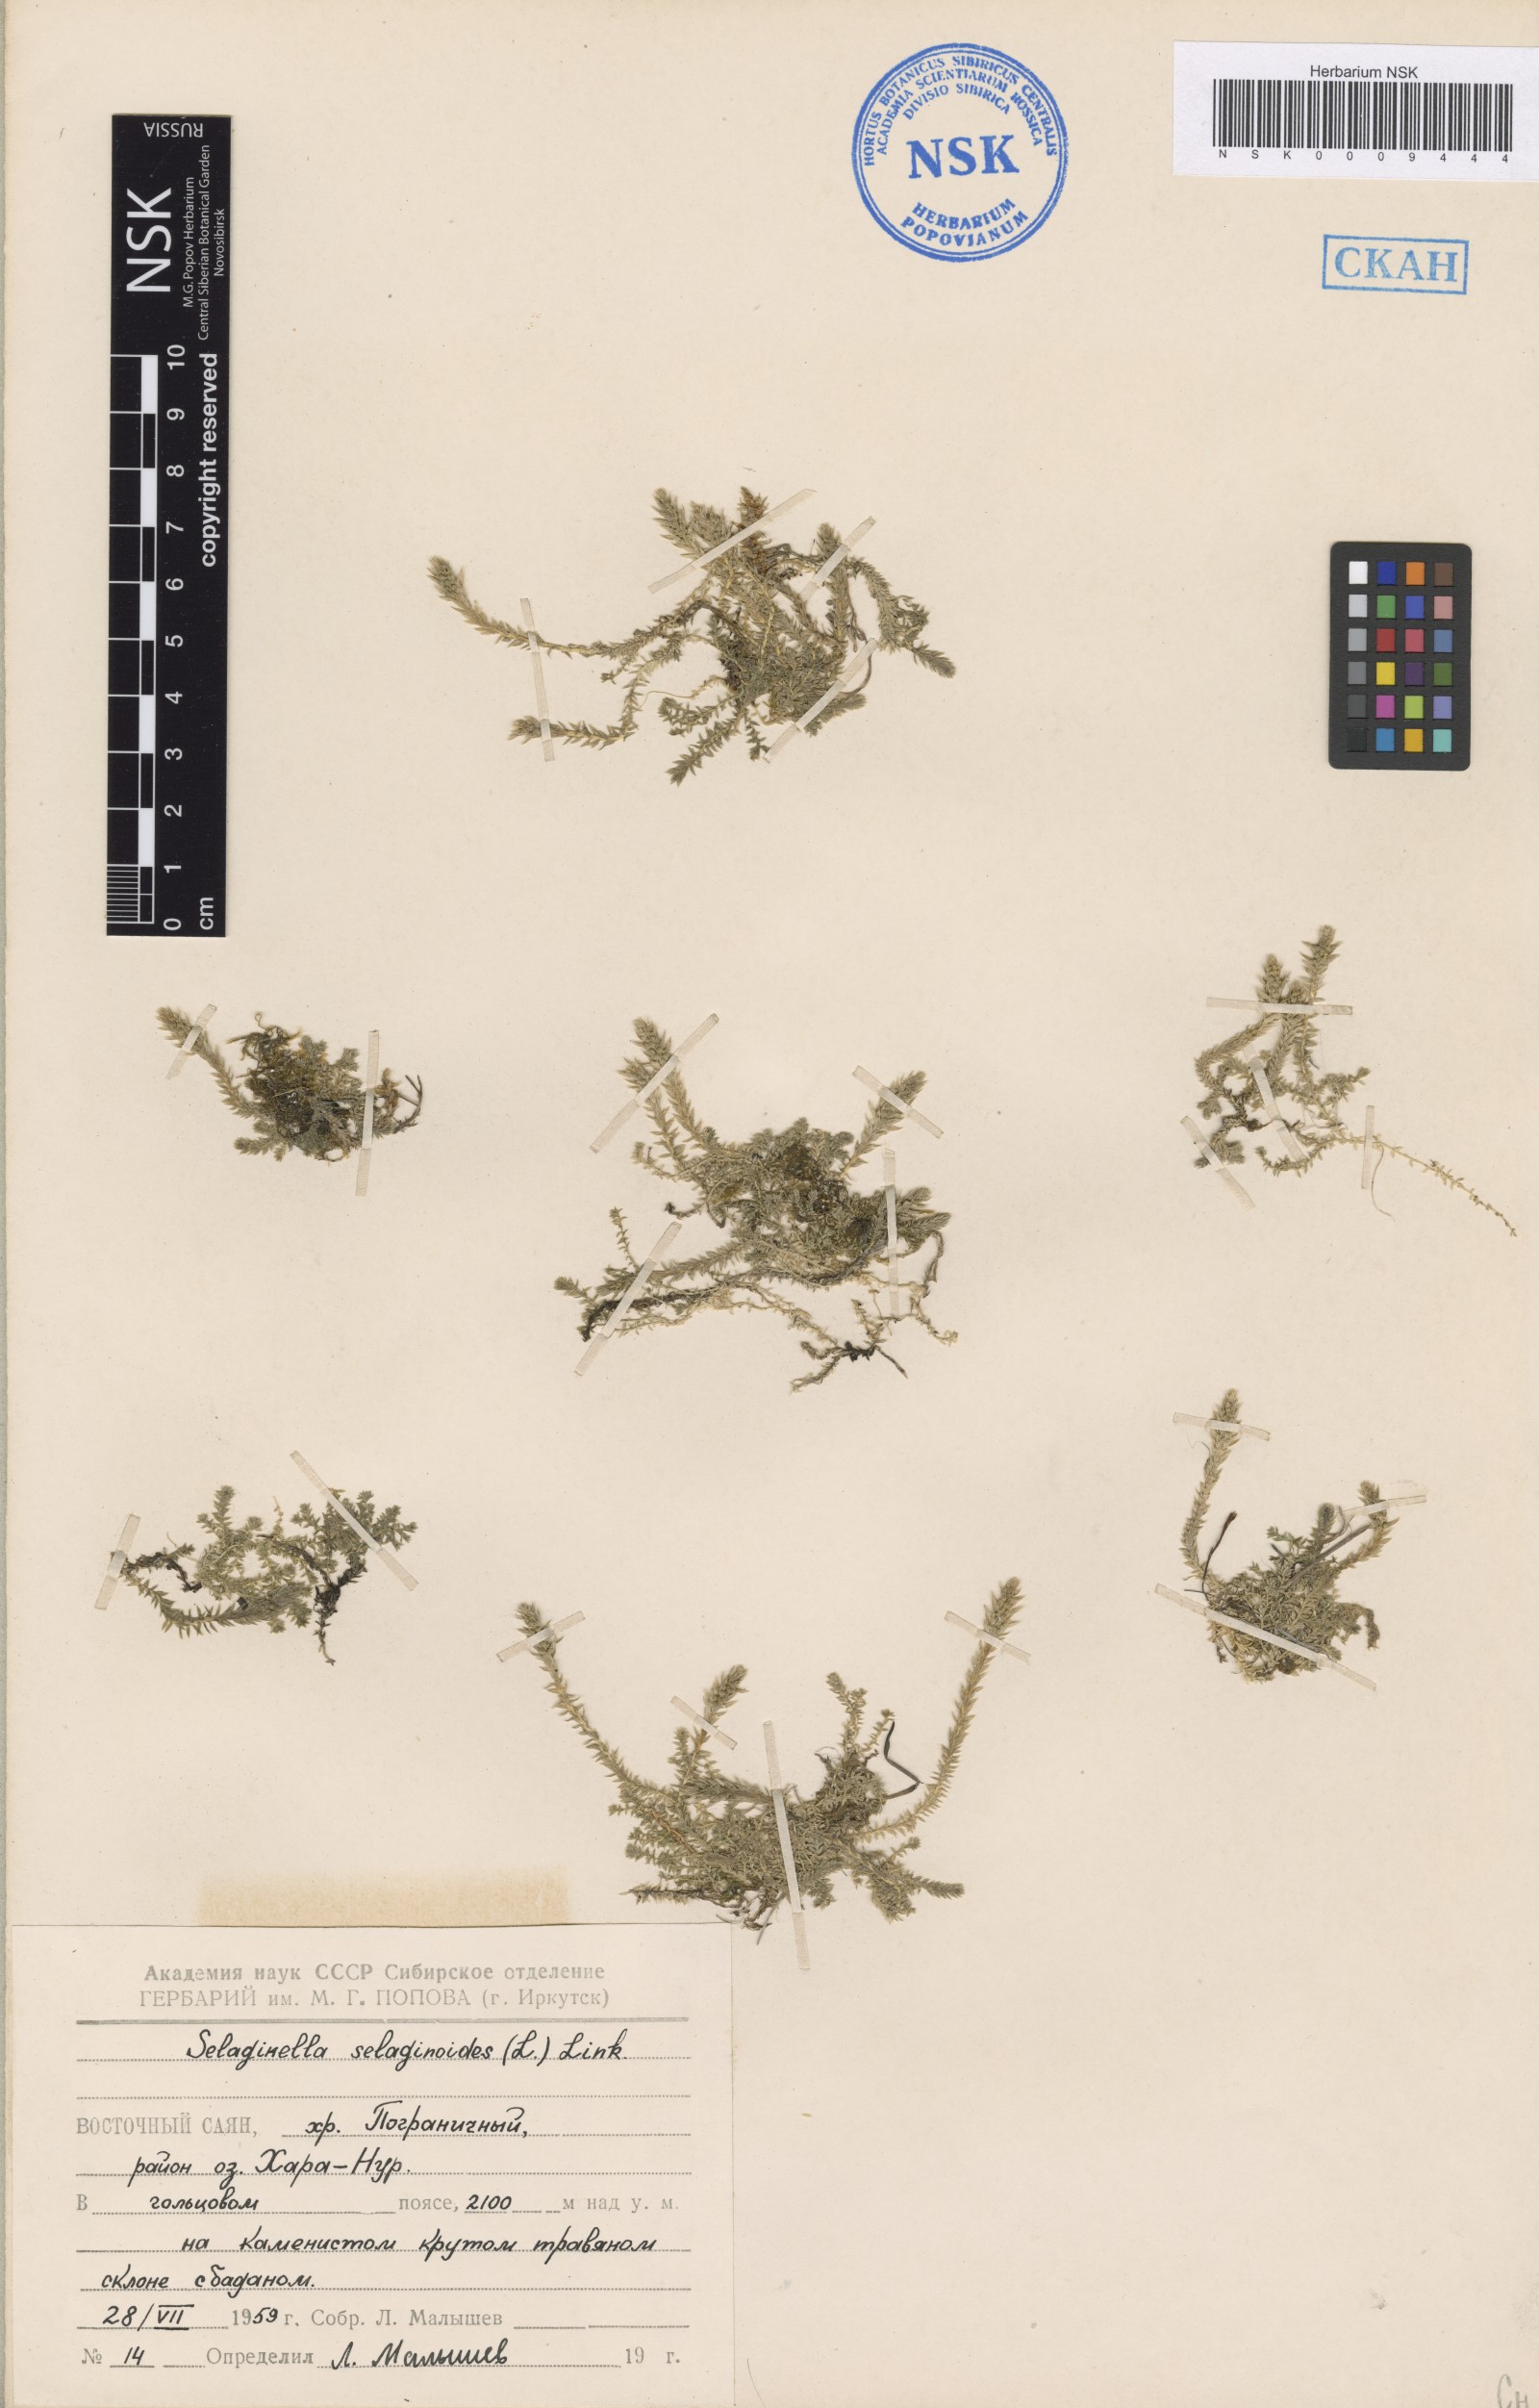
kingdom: Plantae
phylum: Tracheophyta
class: Lycopodiopsida
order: Selaginellales
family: Selaginellaceae
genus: Selaginella
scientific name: Selaginella selaginoides
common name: Prickly mountain-moss
